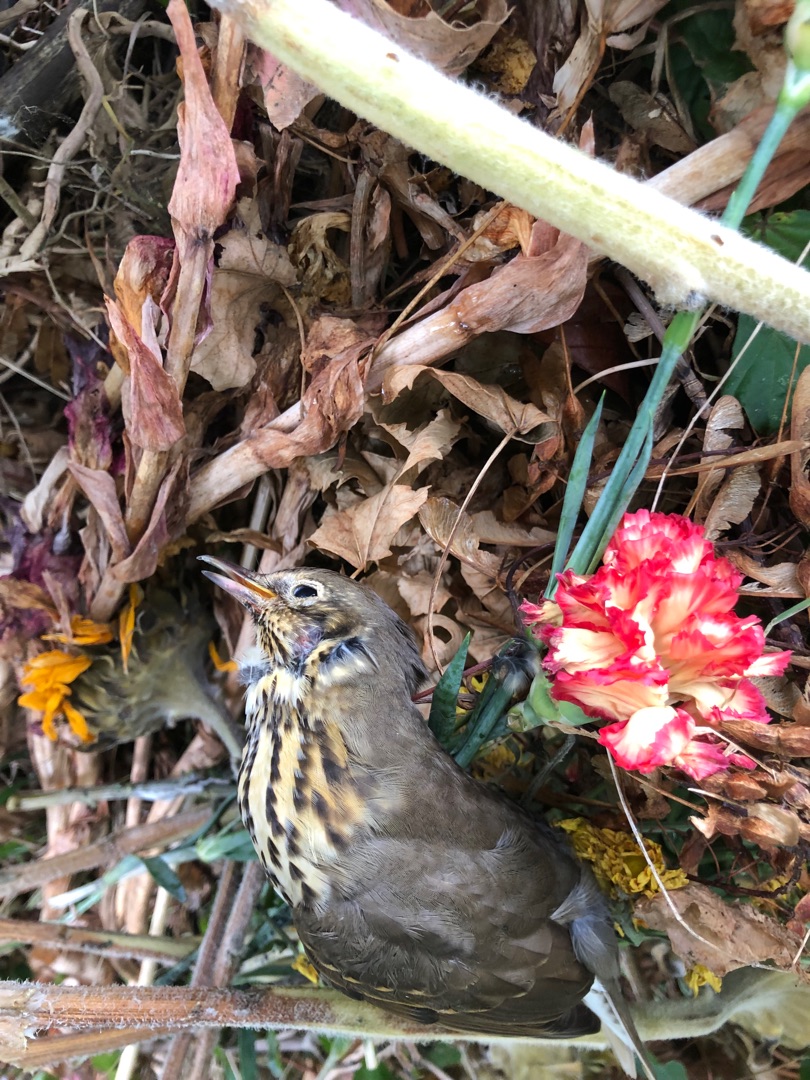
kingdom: Animalia
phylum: Chordata
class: Aves
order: Passeriformes
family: Turdidae
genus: Turdus
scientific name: Turdus philomelos
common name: Sangdrossel
